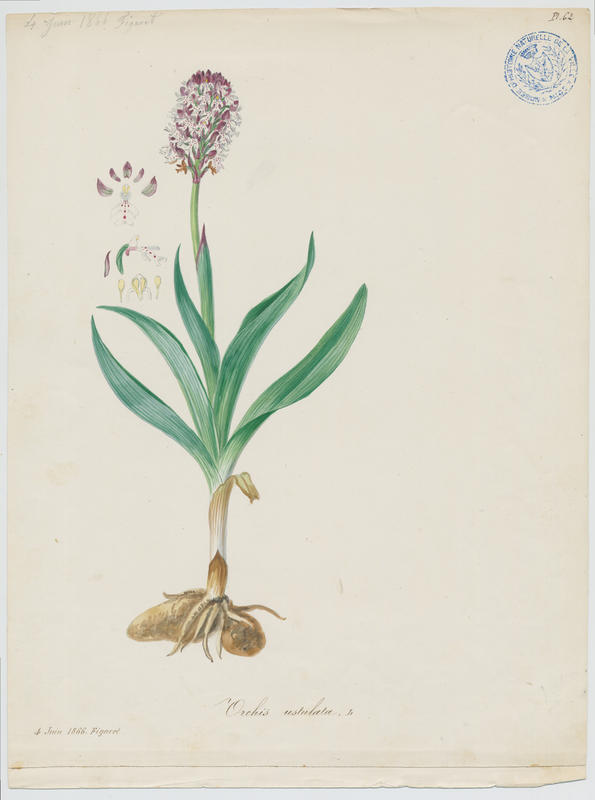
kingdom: Plantae
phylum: Tracheophyta
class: Liliopsida
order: Asparagales
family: Orchidaceae
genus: Neotinea
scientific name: Neotinea ustulata
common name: Burnt orchid
